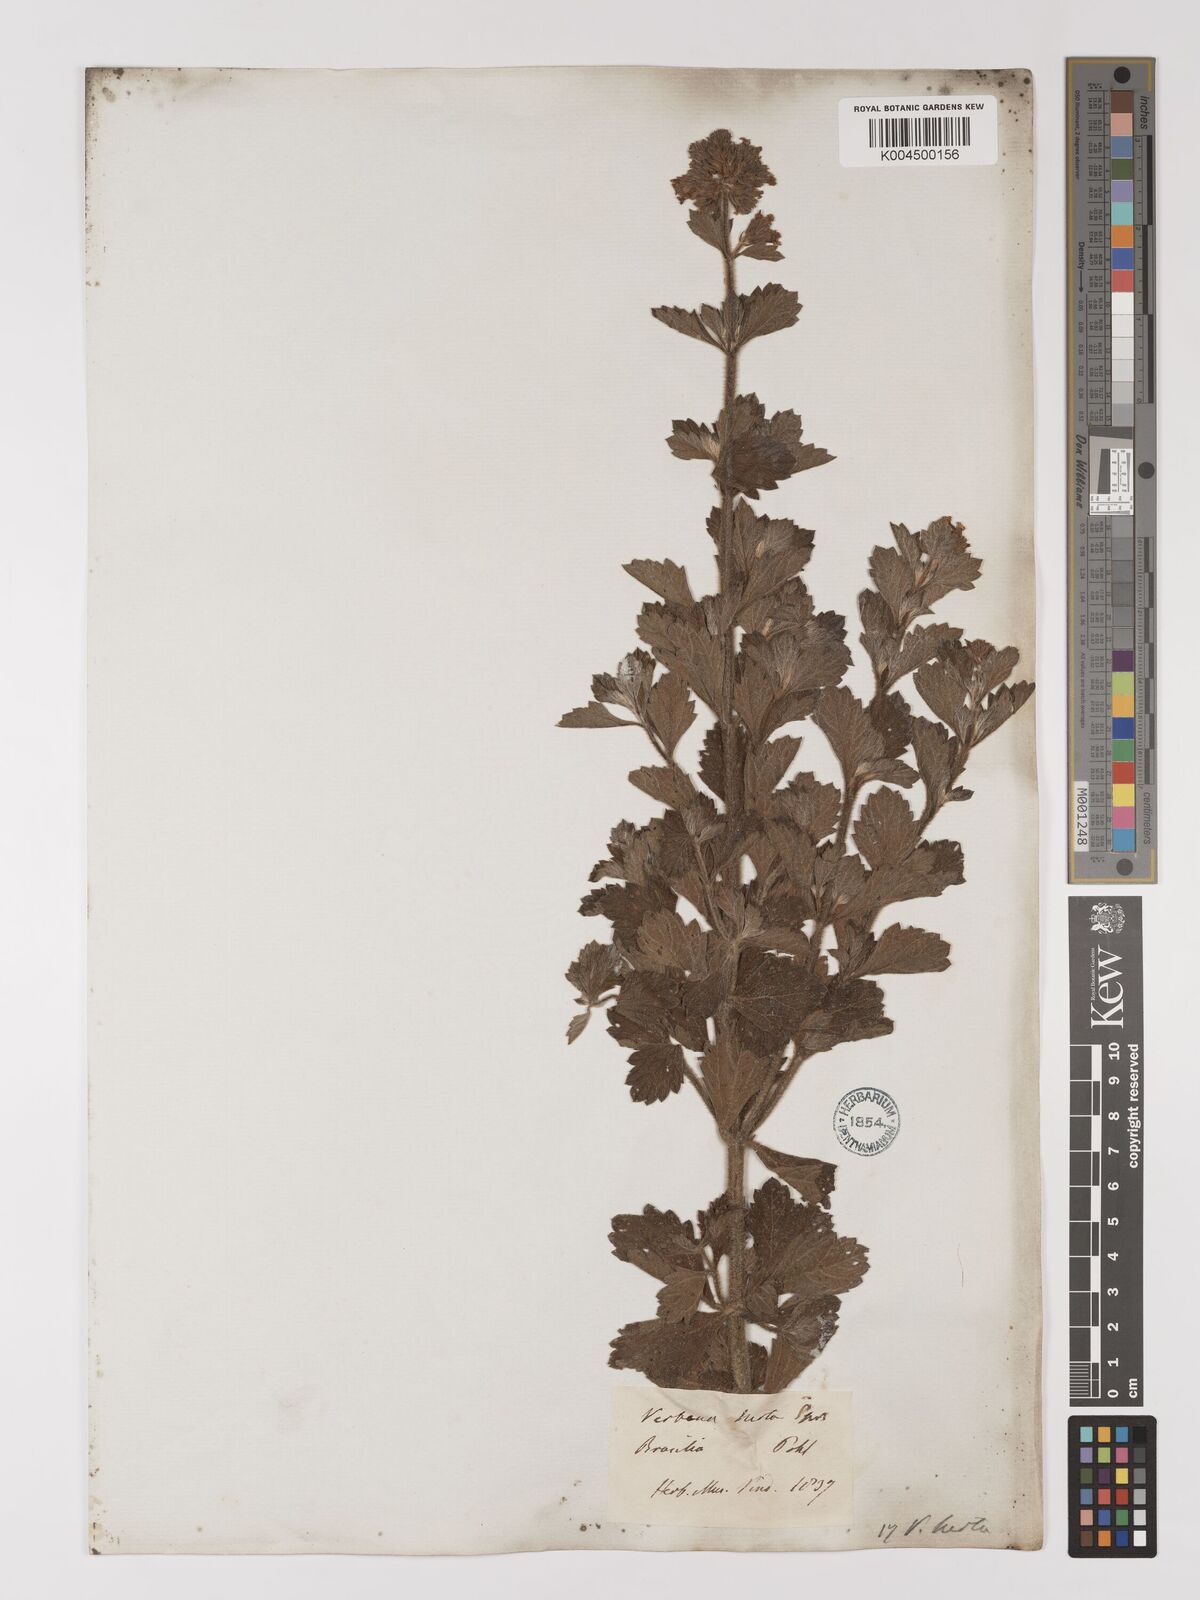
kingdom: Plantae
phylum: Tracheophyta
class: Magnoliopsida
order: Lamiales
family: Verbenaceae
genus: Verbena
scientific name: Verbena hirta
